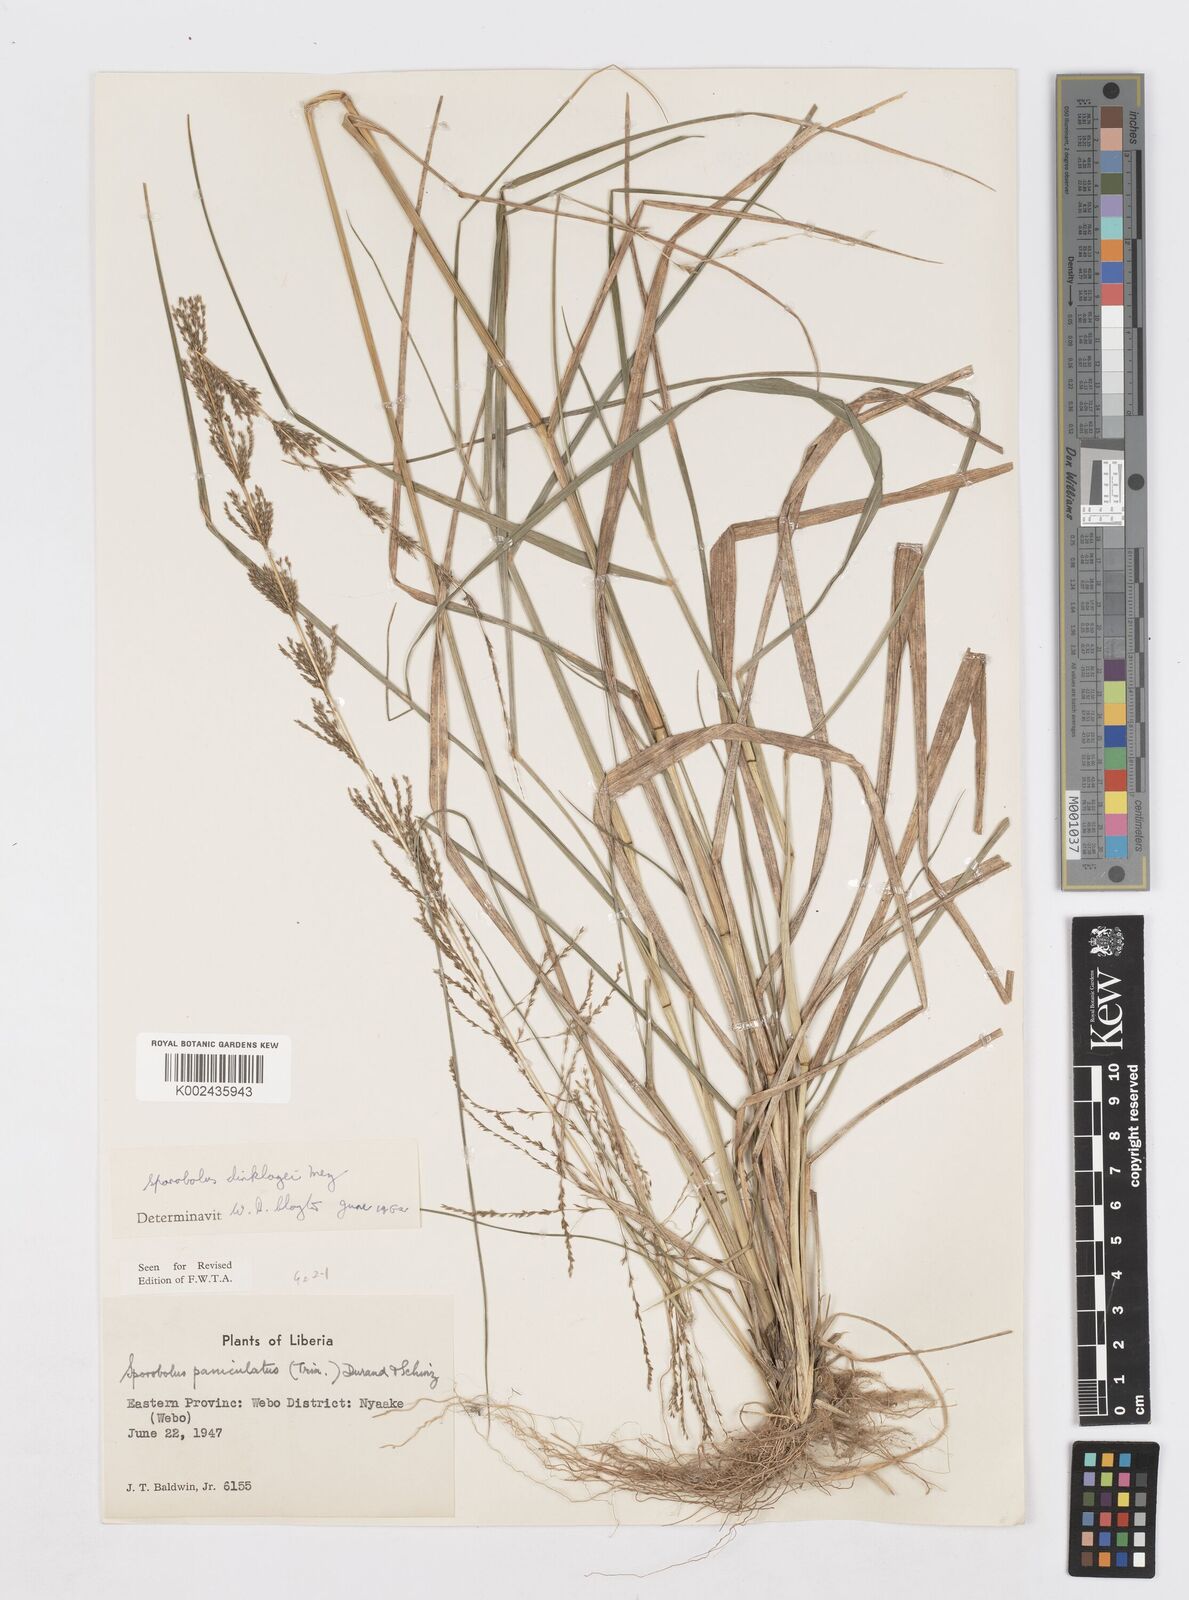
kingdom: Plantae
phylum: Tracheophyta
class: Liliopsida
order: Poales
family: Poaceae
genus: Sporobolus
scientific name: Sporobolus dinklagei
